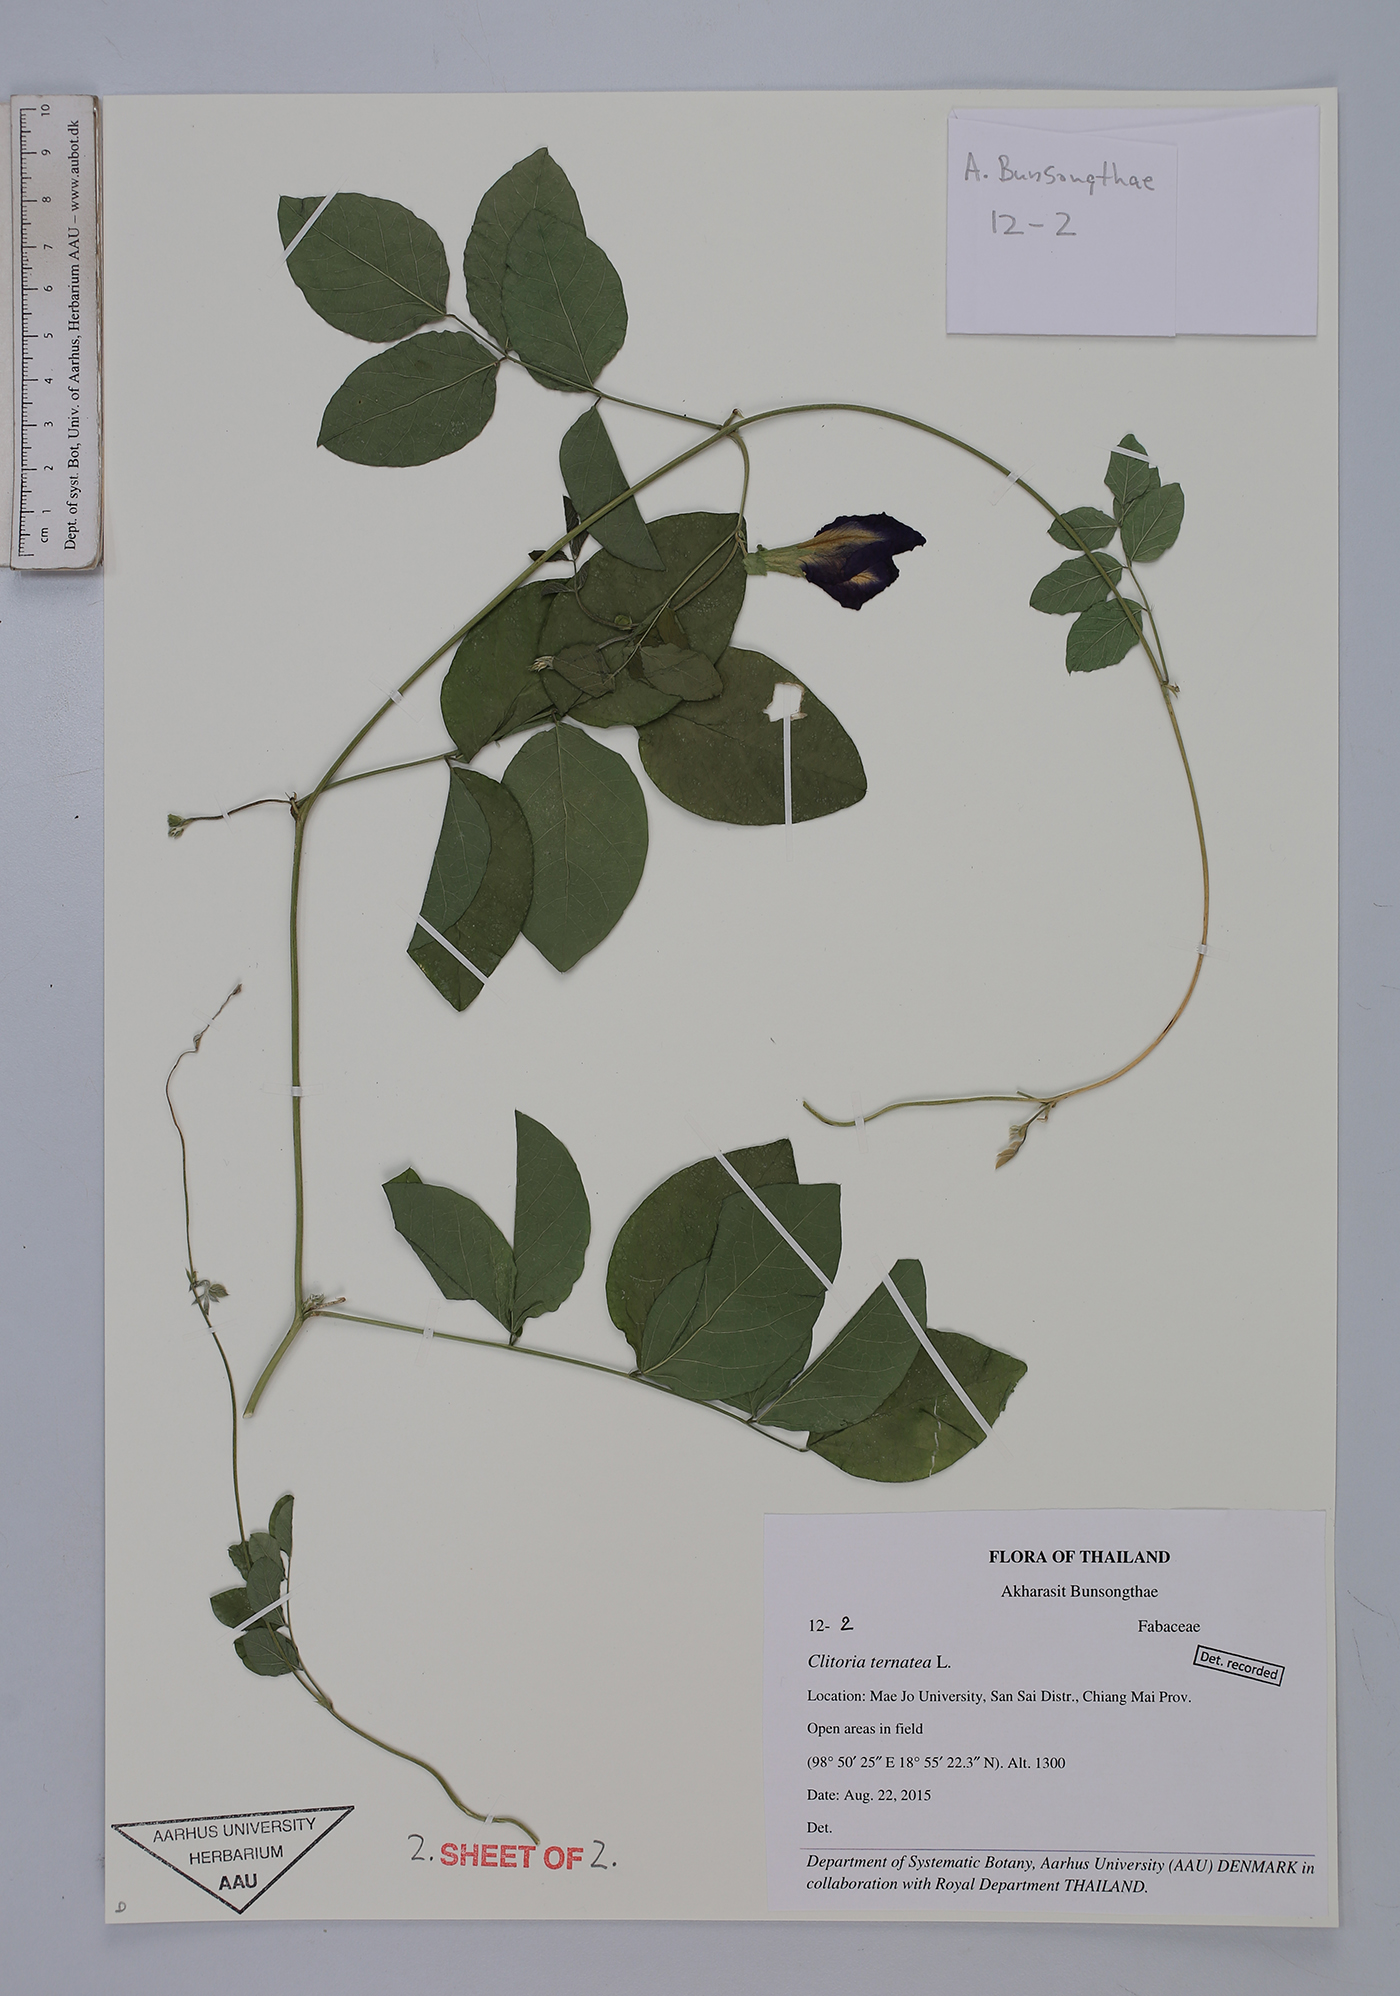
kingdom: Plantae
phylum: Tracheophyta
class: Magnoliopsida
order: Fabales
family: Fabaceae
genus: Clitoria
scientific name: Clitoria ternatea
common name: Asian pigeonwings
